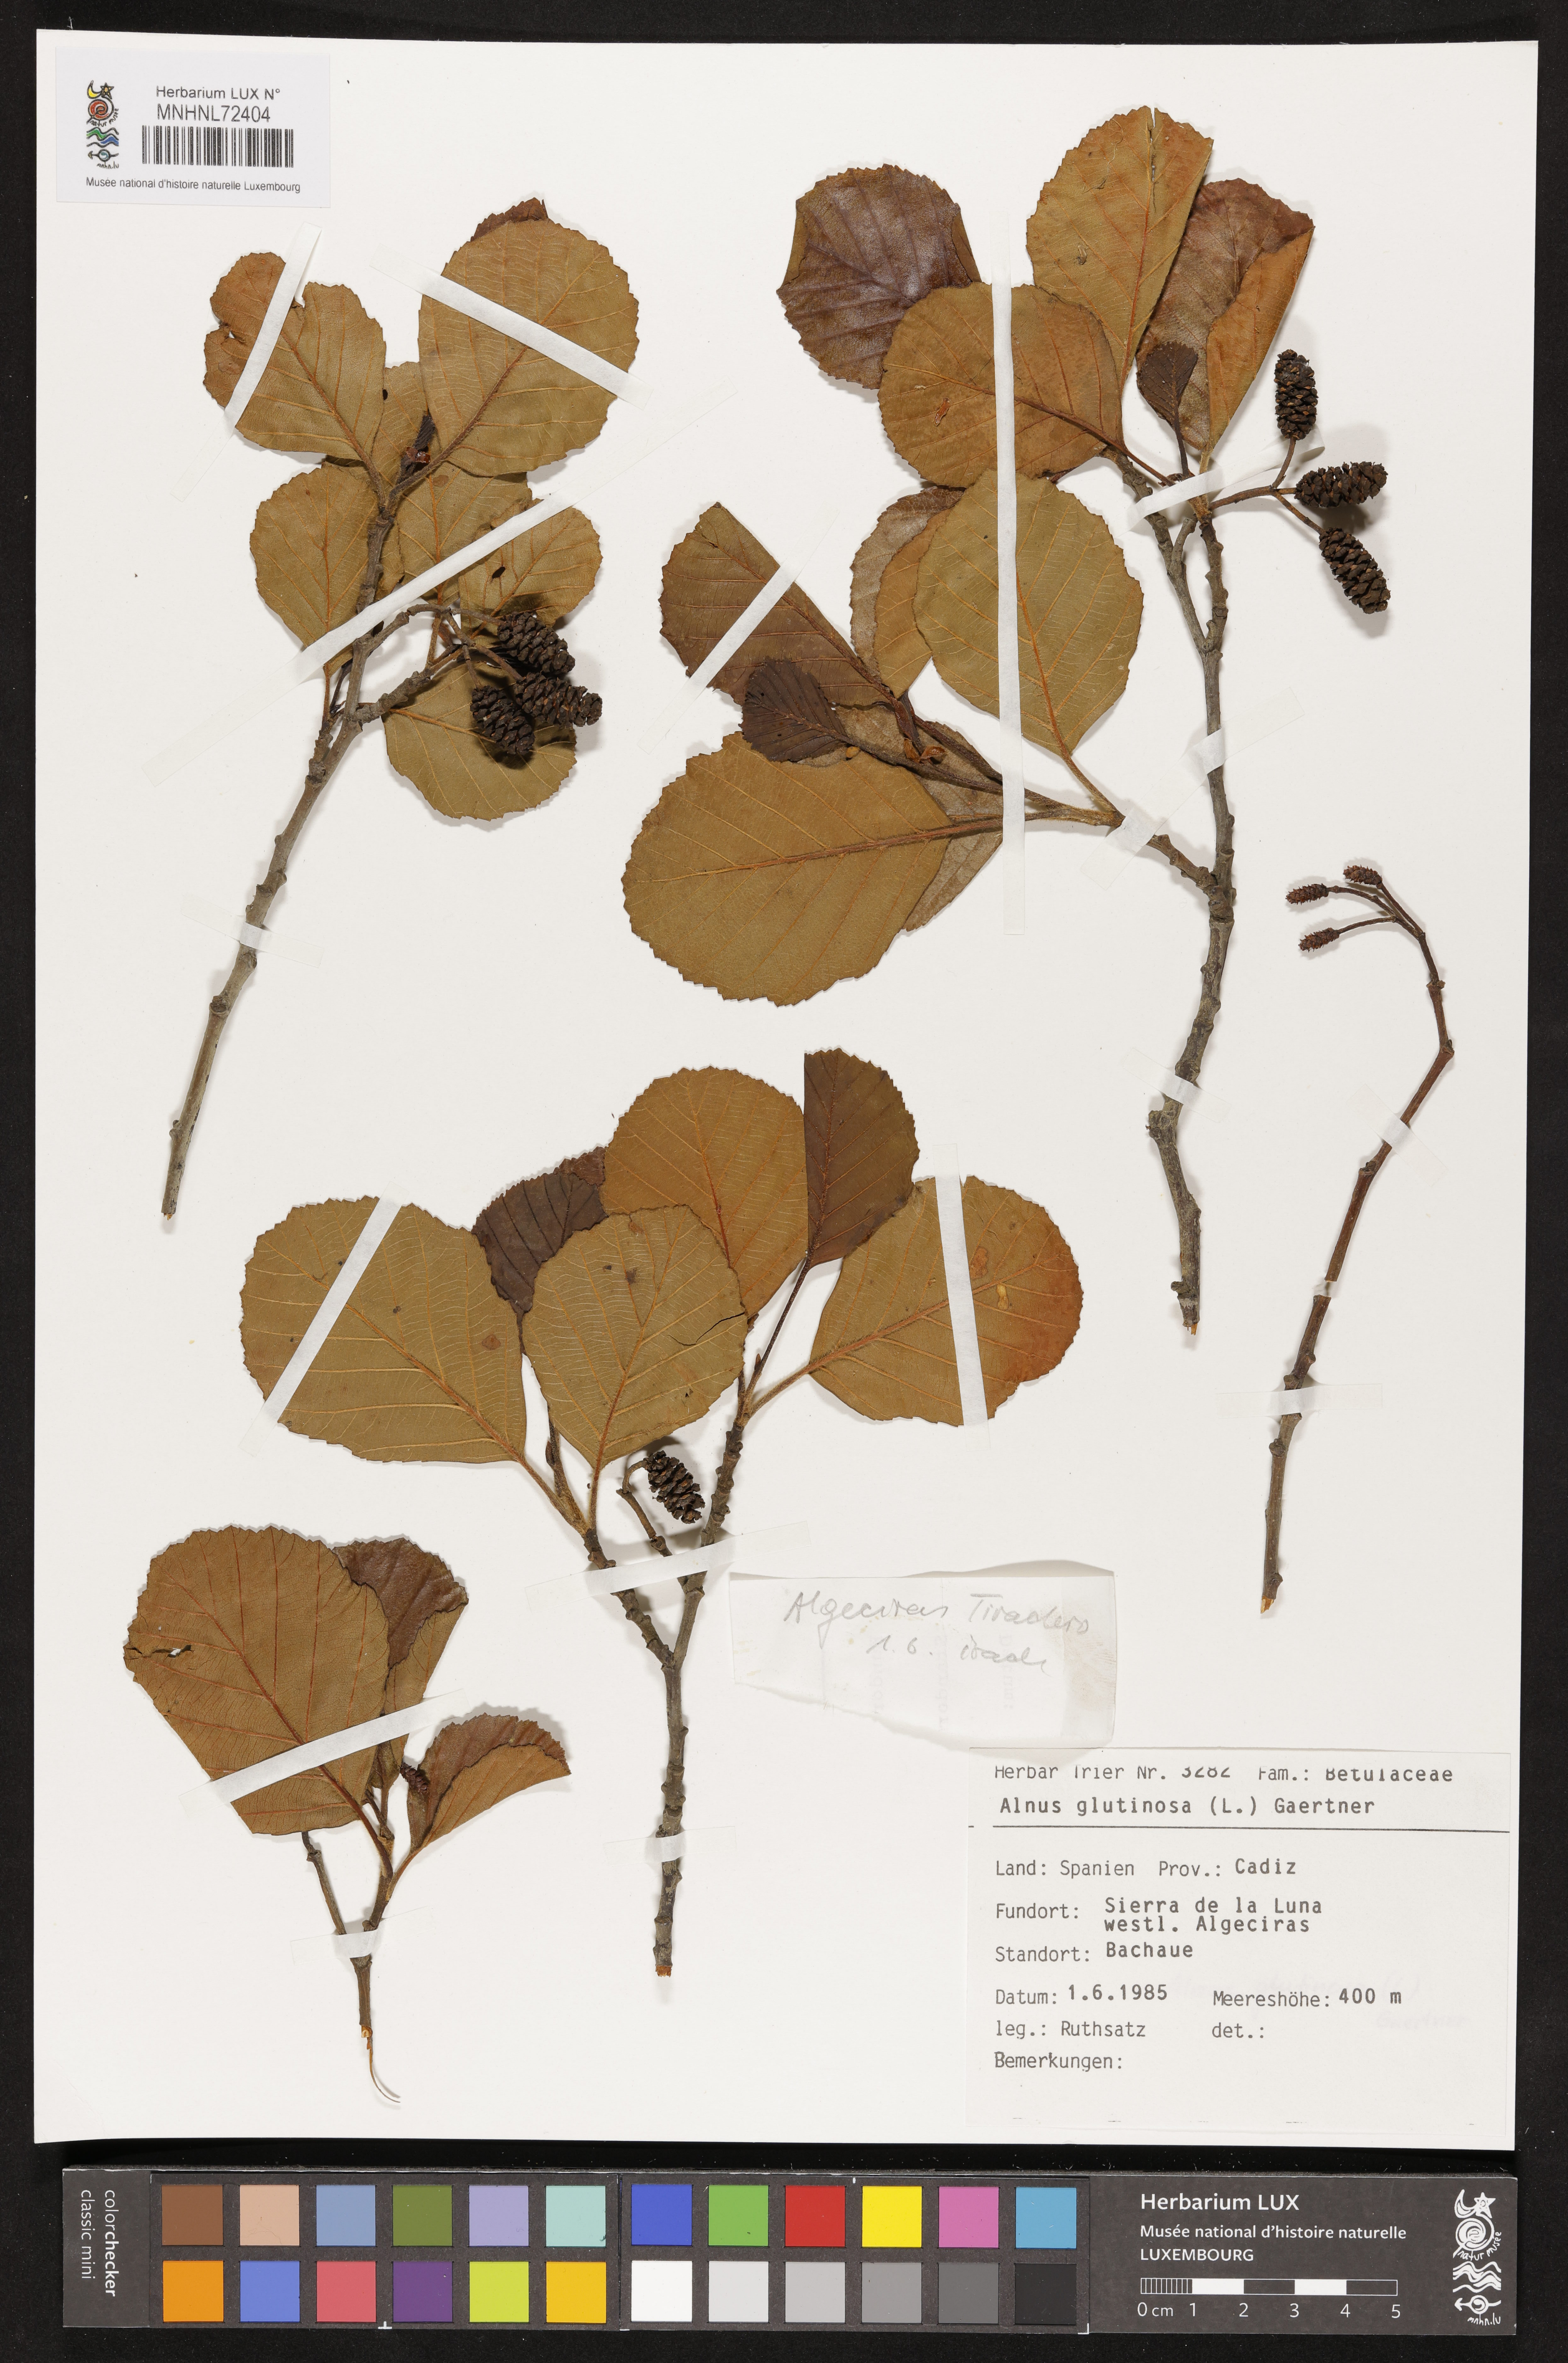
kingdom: Plantae
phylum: Tracheophyta
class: Magnoliopsida
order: Fagales
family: Betulaceae
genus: Alnus
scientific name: Alnus glutinosa
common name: Black alder
